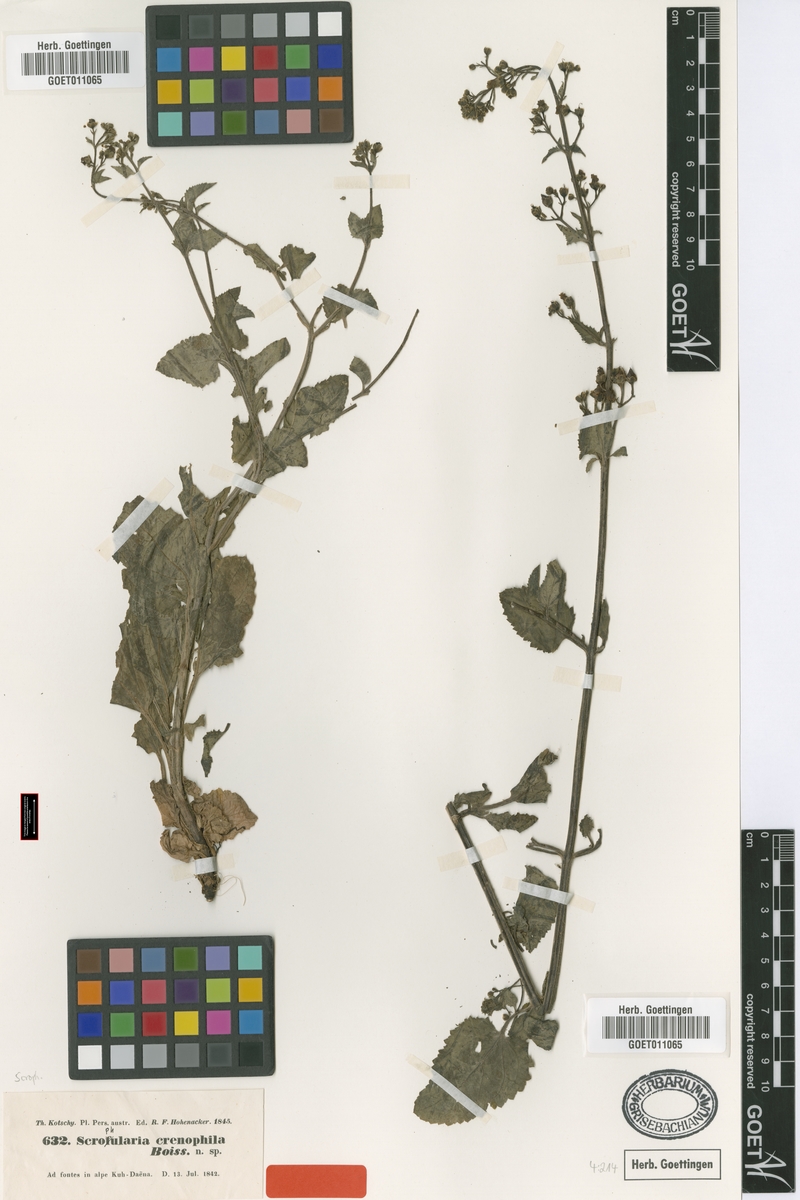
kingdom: Plantae
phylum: Tracheophyta
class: Magnoliopsida
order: Lamiales
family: Scrophulariaceae
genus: Scrophularia
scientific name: Scrophularia crenophila
